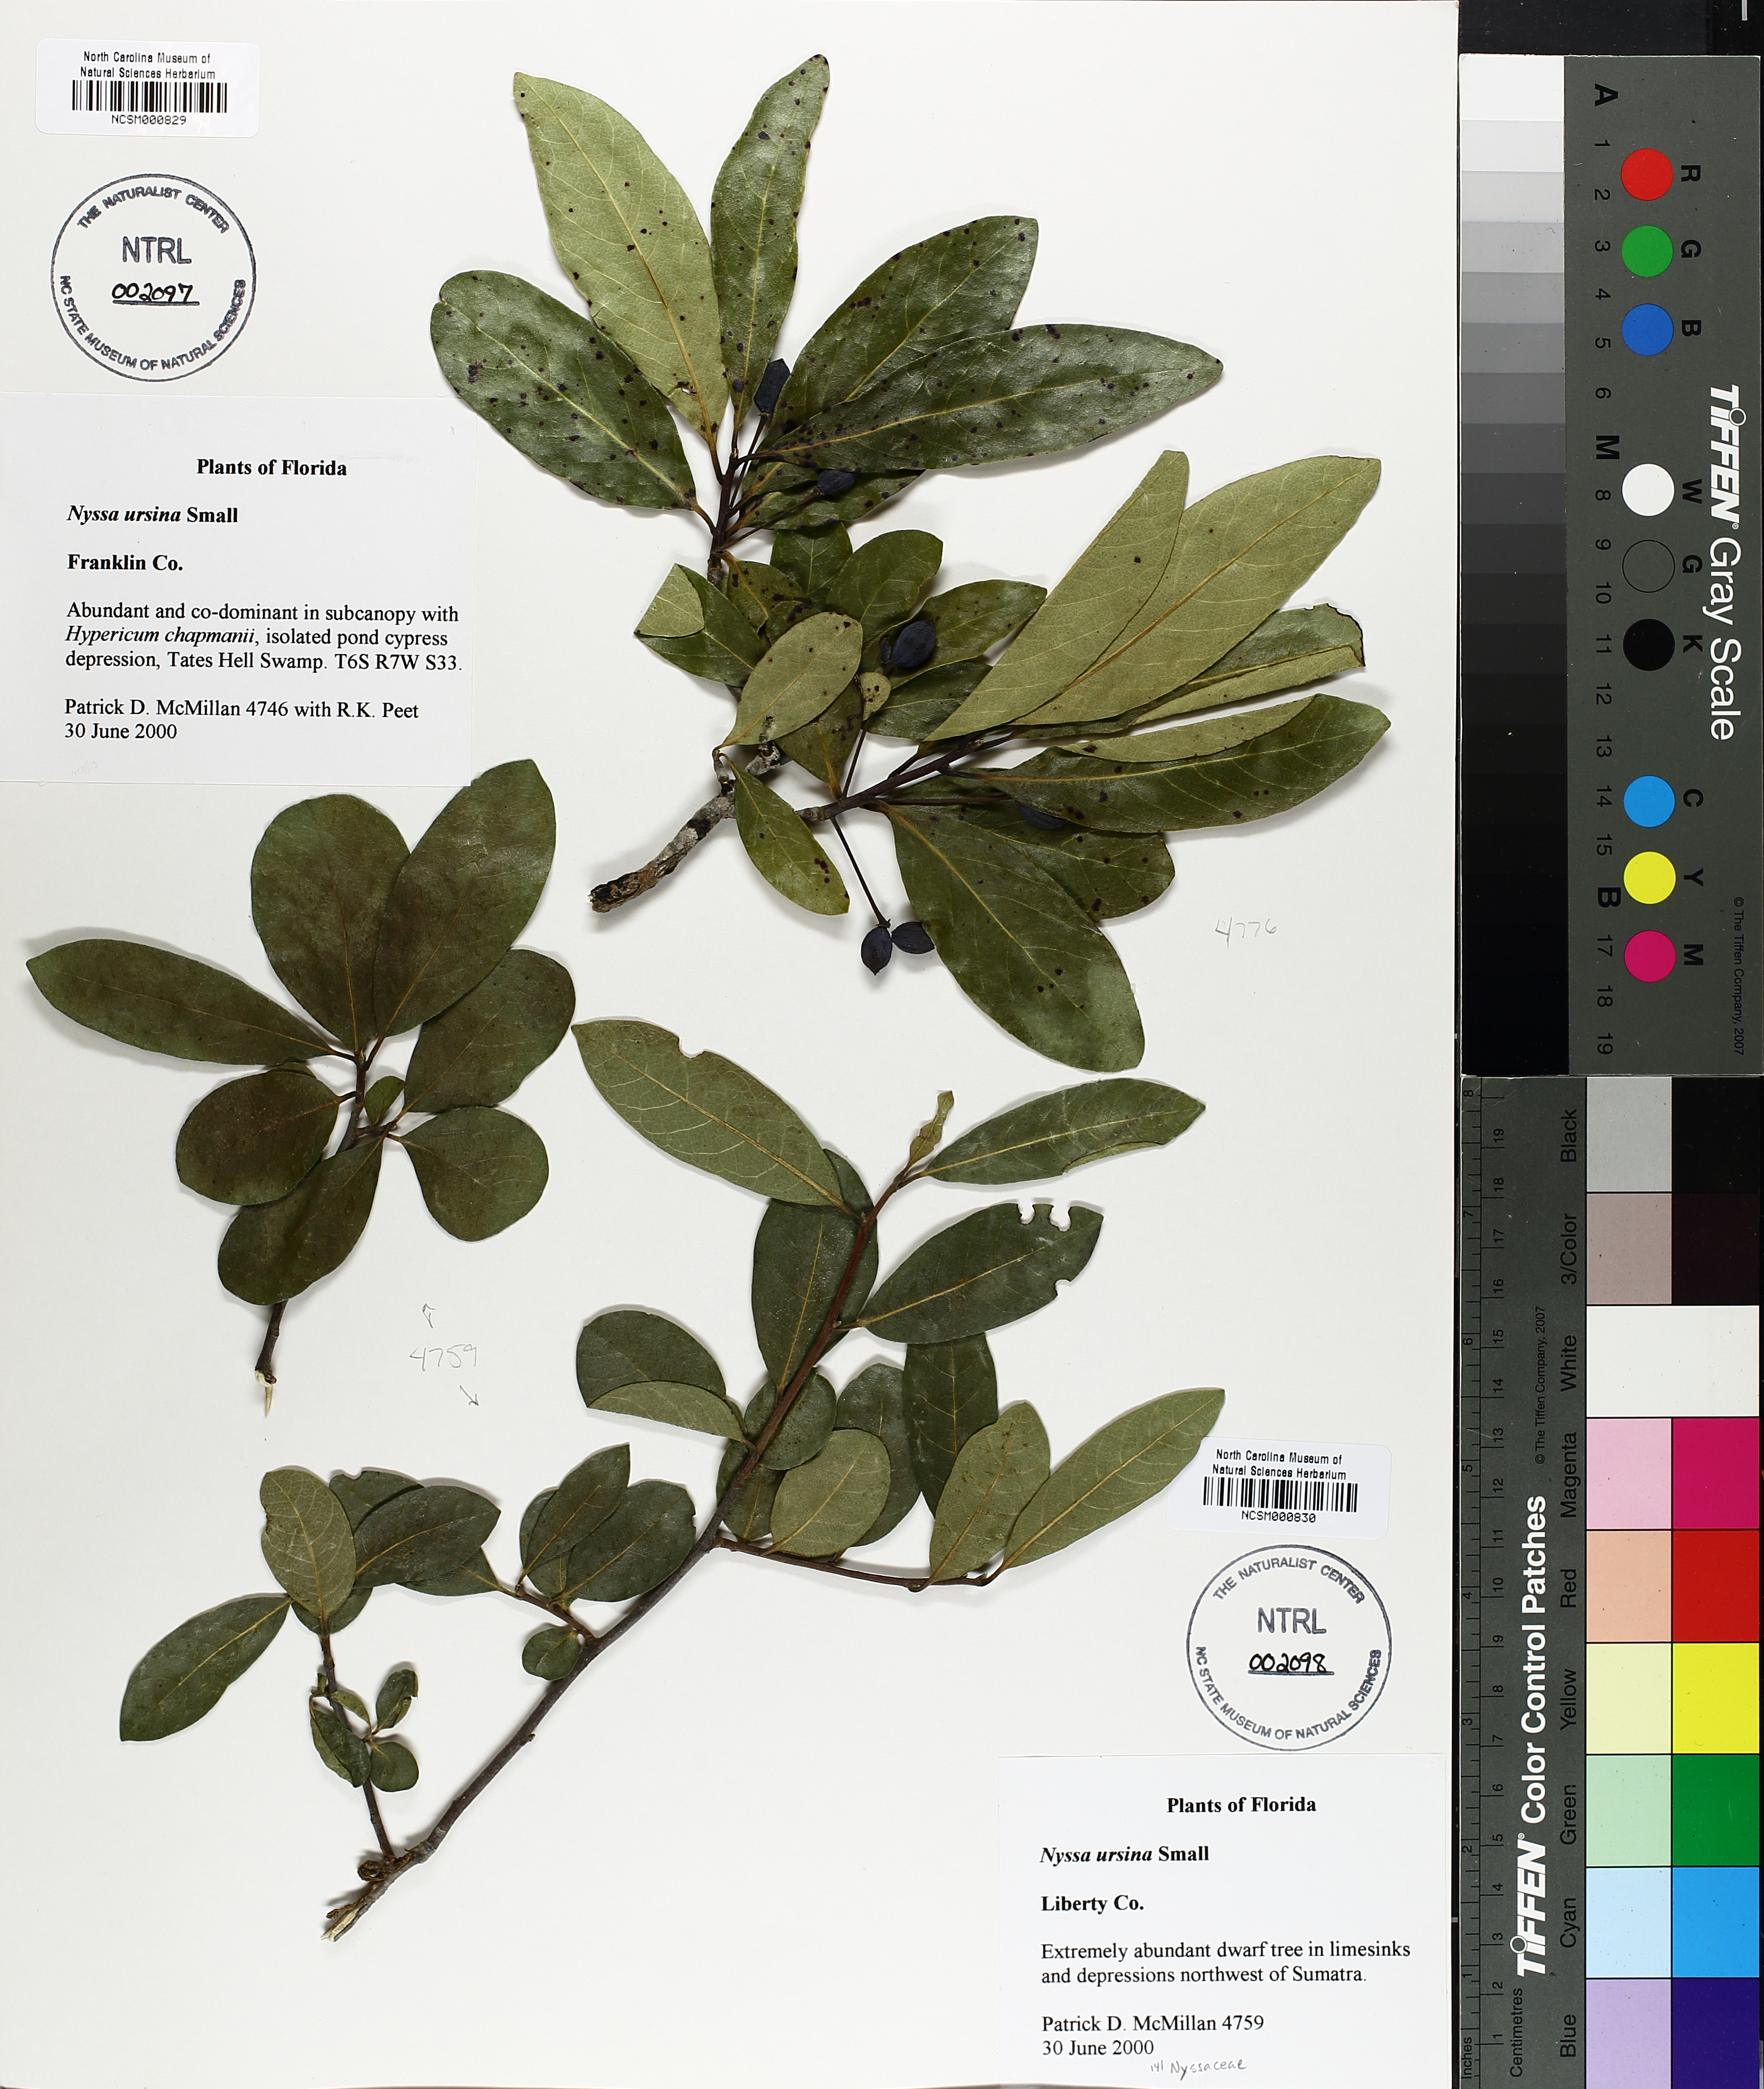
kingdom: Plantae
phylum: Tracheophyta
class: Magnoliopsida
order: Cornales
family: Nyssaceae
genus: Nyssa
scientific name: Nyssa biflora
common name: Swamp blackgum
